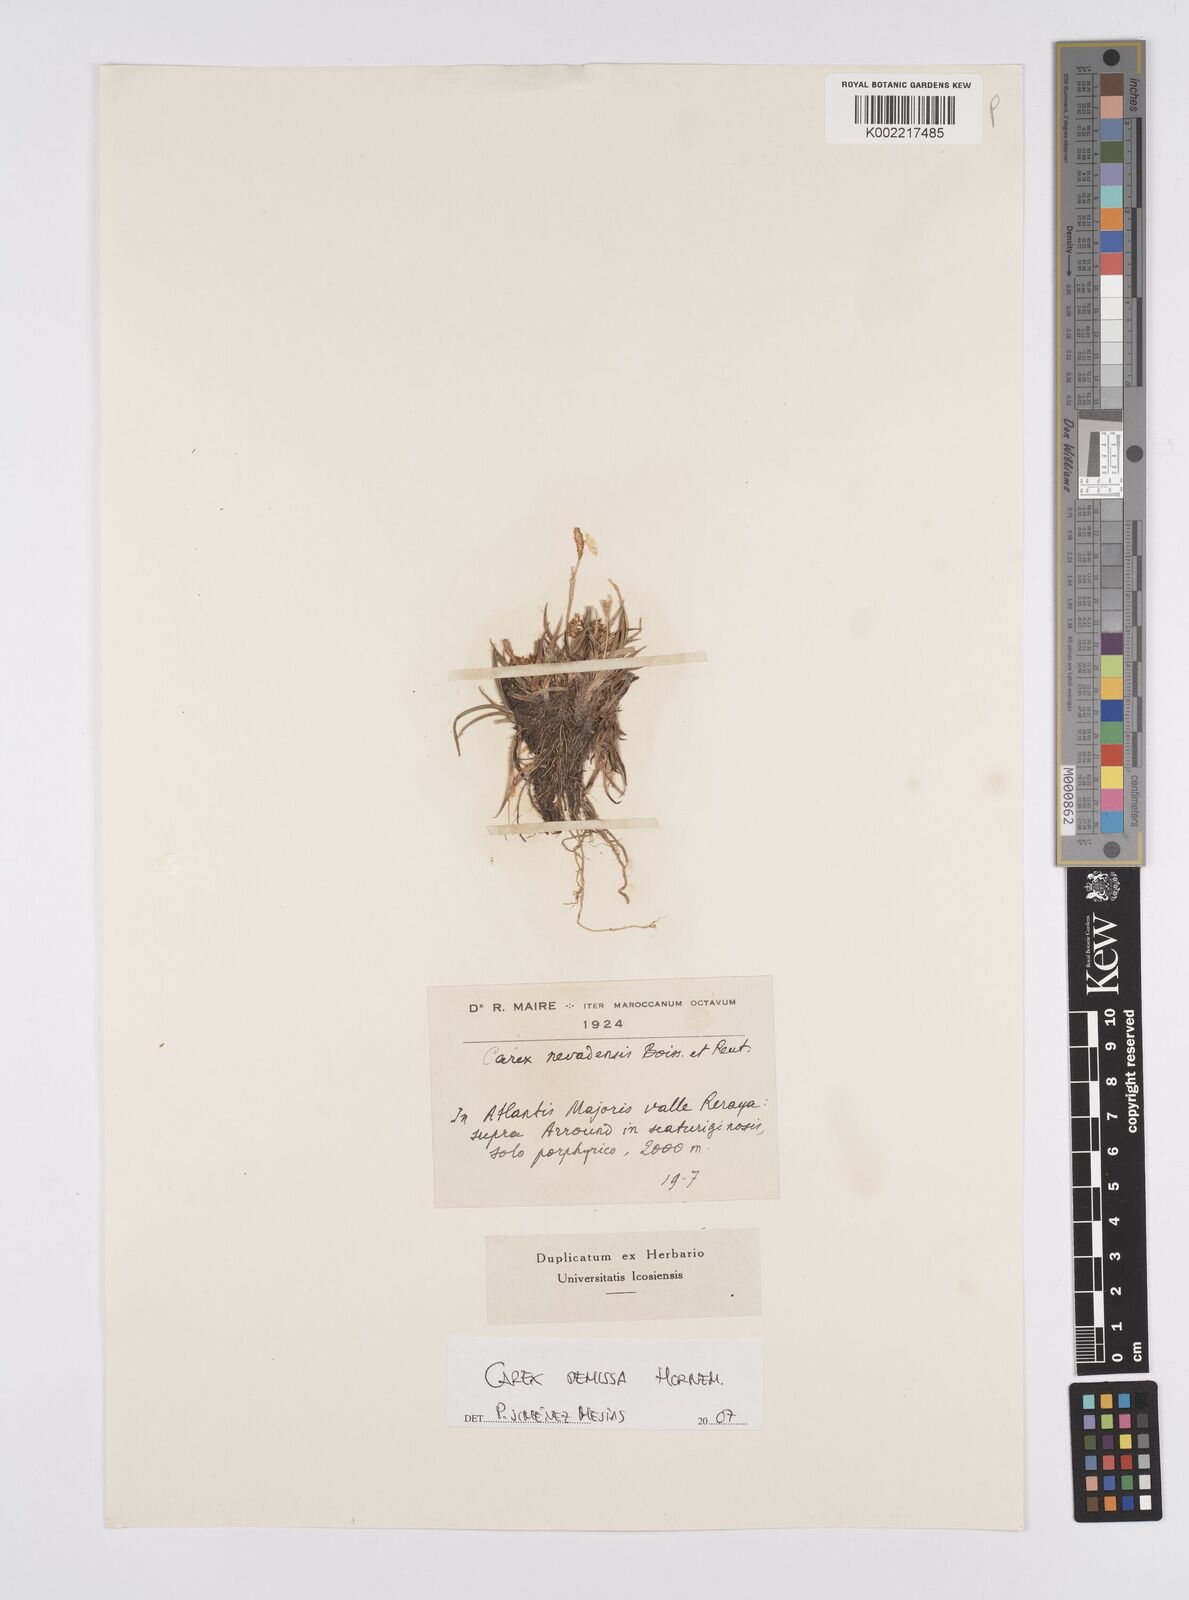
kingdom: Plantae
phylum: Tracheophyta
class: Liliopsida
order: Poales
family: Cyperaceae
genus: Carex
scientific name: Carex demissa
